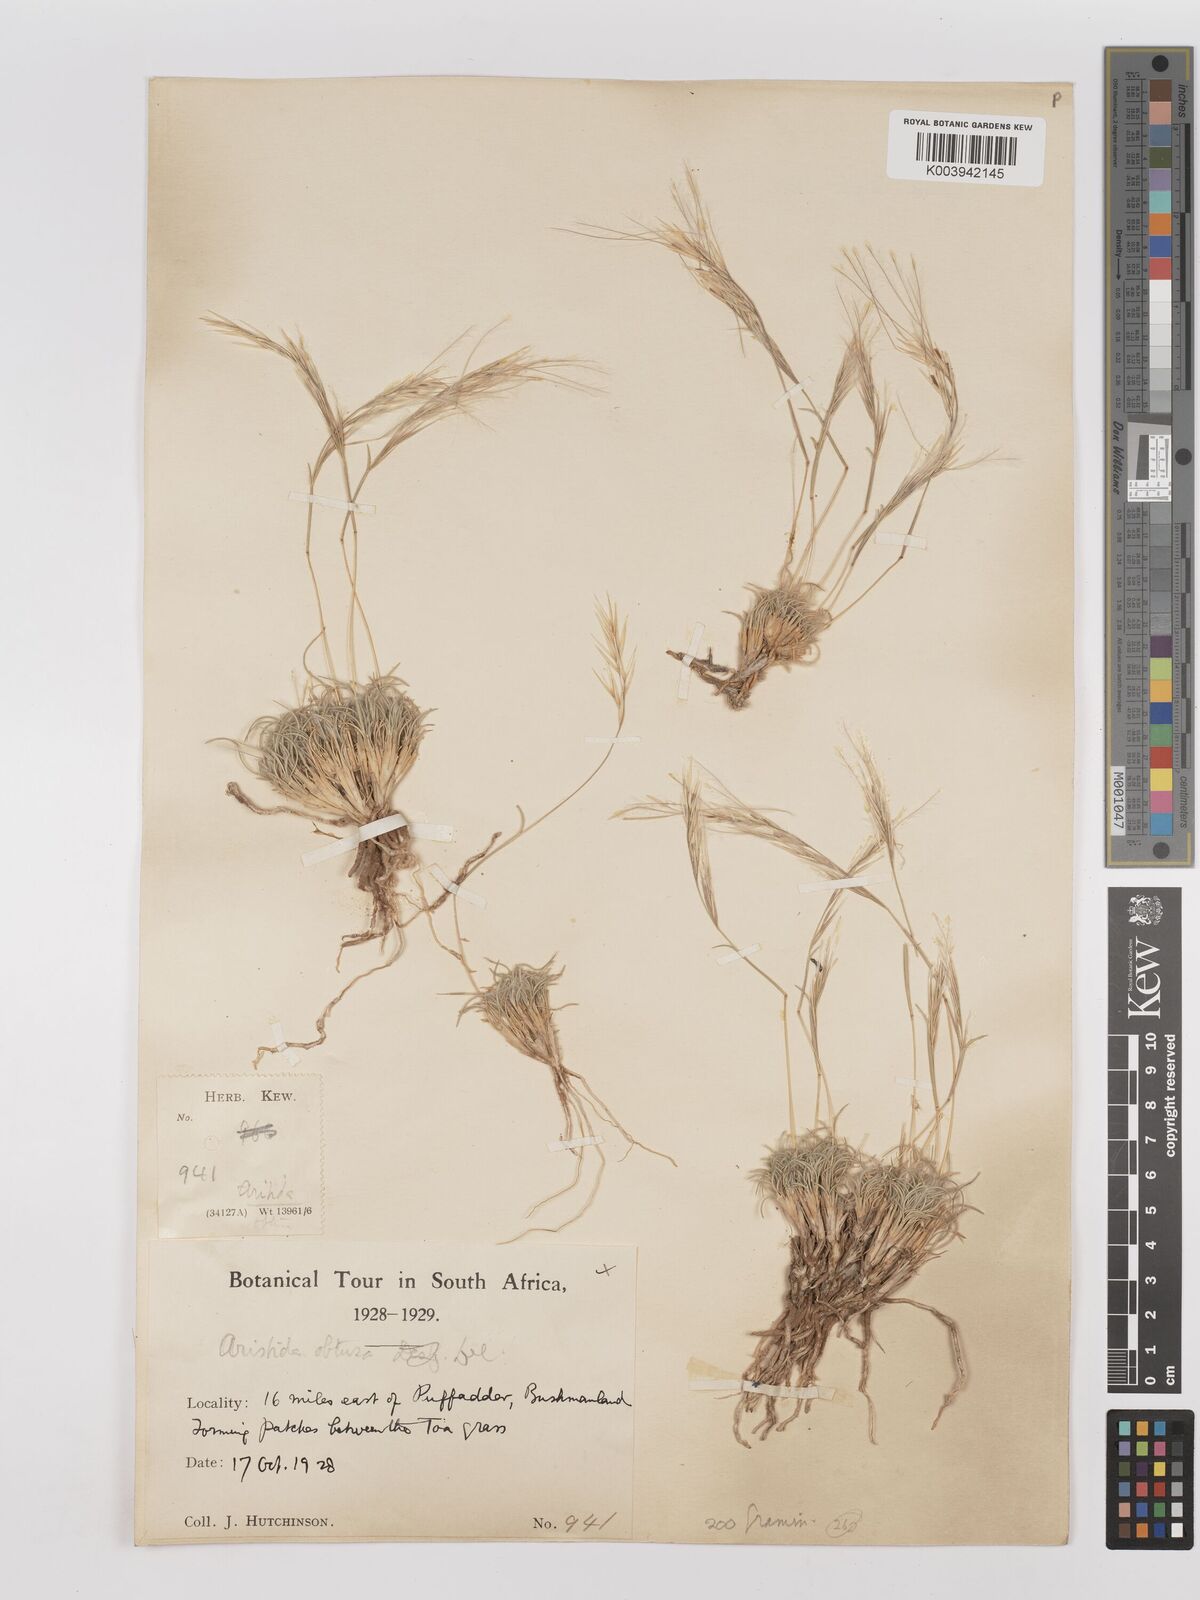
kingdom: Plantae
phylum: Tracheophyta
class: Liliopsida
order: Poales
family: Poaceae
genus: Stipagrostis
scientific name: Stipagrostis obtusa
